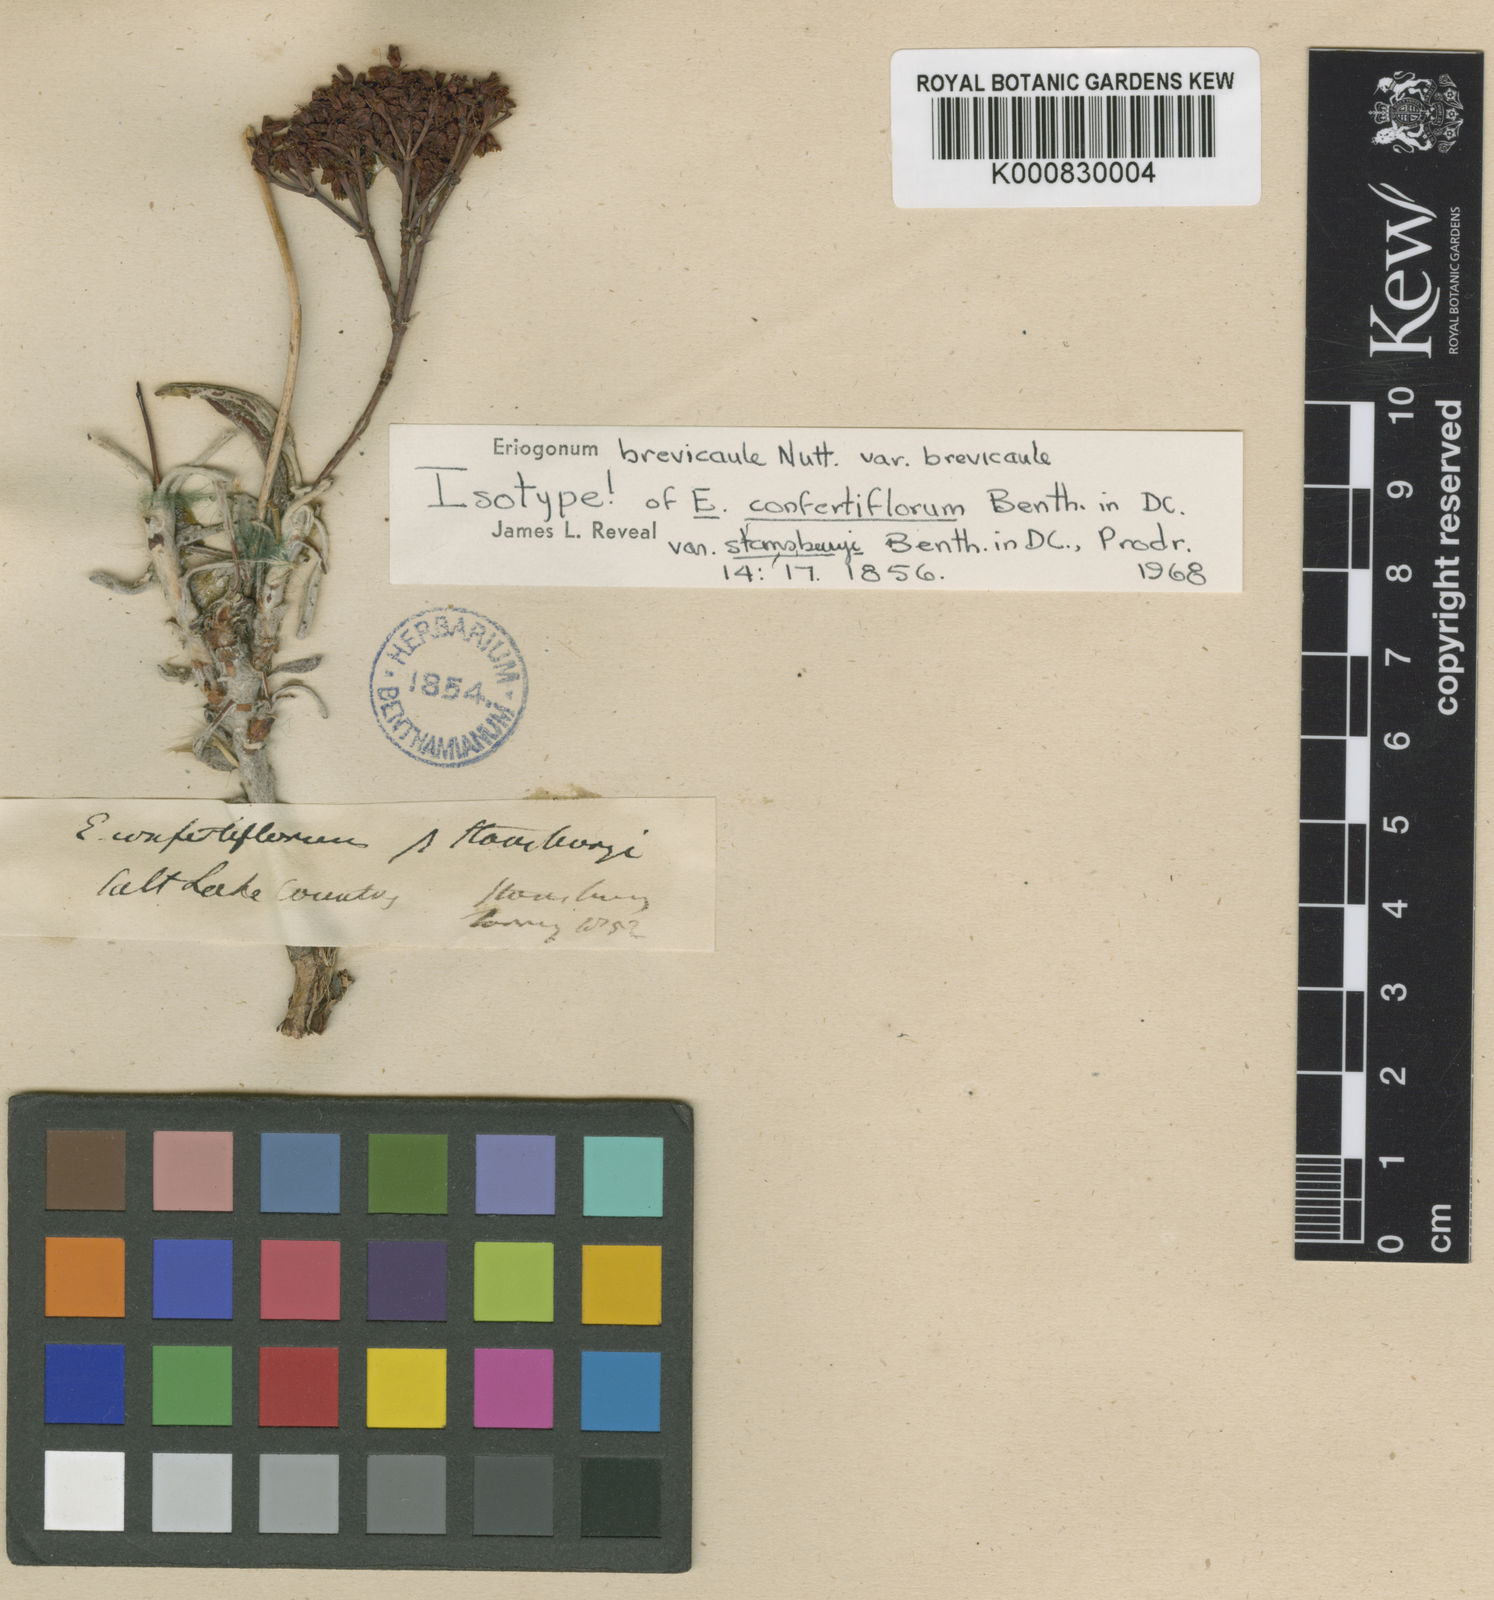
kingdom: Plantae
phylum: Tracheophyta
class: Magnoliopsida
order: Caryophyllales
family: Polygonaceae
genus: Eriogonum
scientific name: Eriogonum brevicaule
